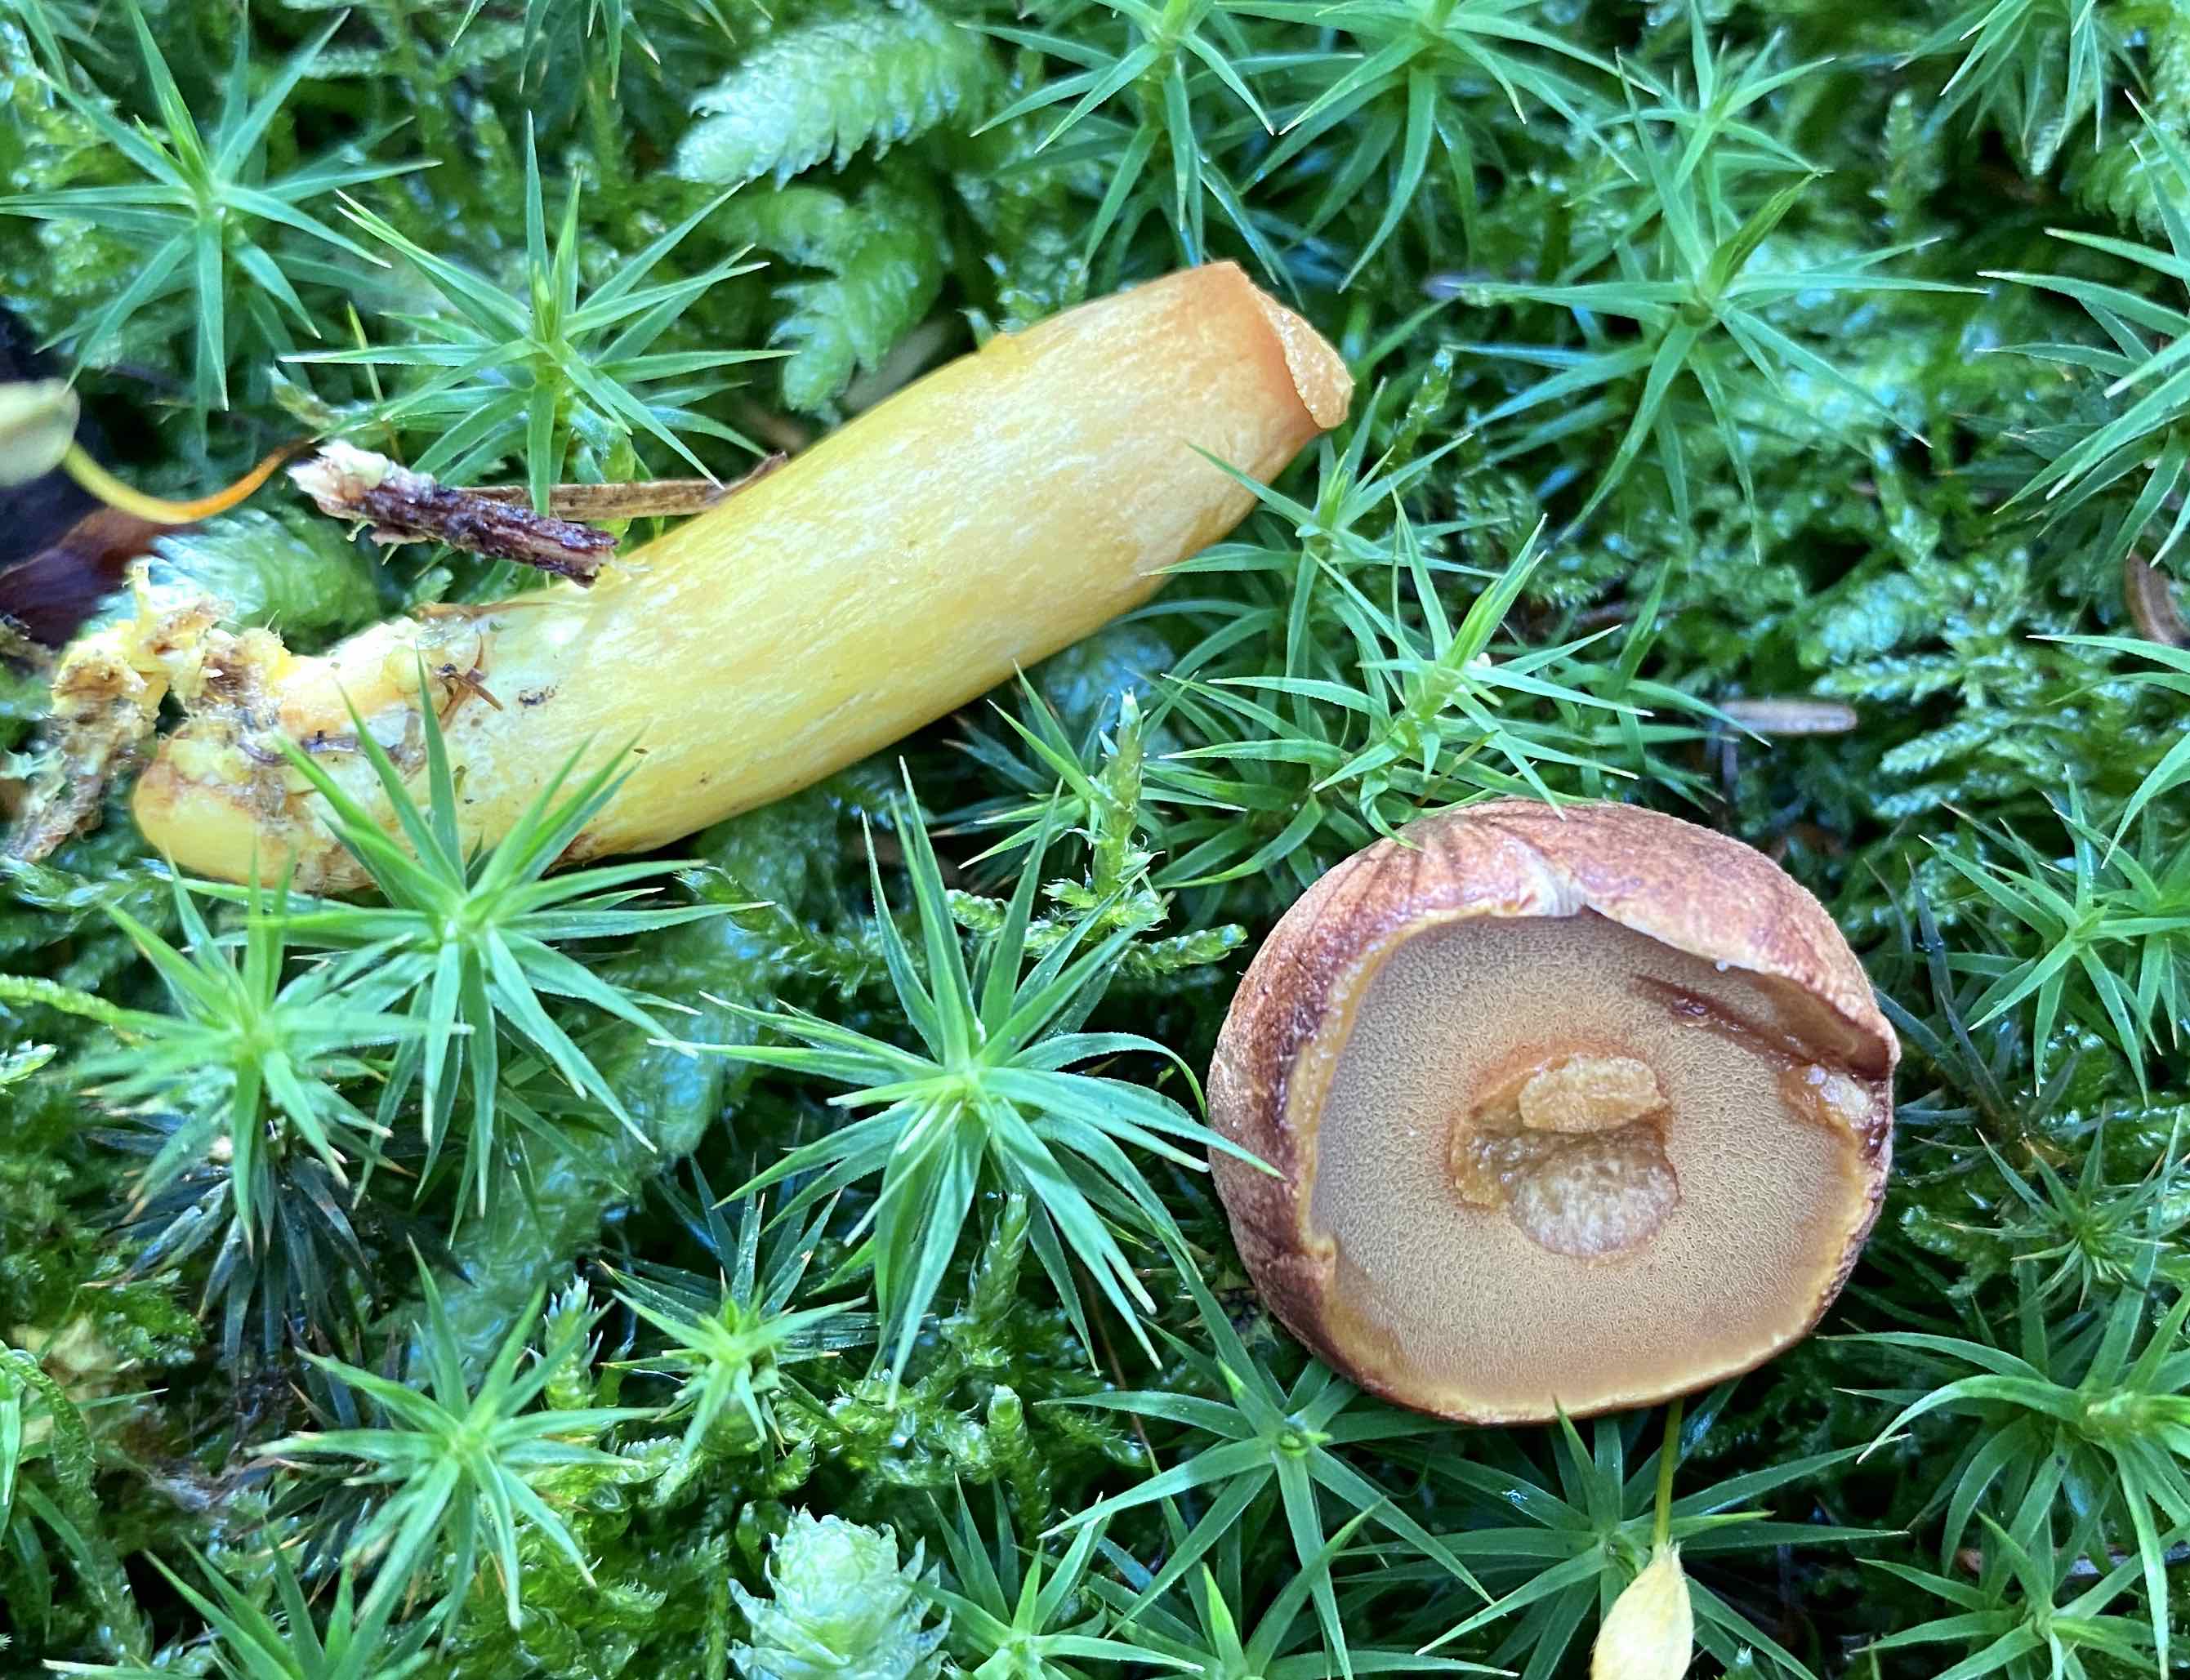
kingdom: Fungi
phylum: Basidiomycota
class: Agaricomycetes
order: Boletales
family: Boletaceae
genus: Chalciporus
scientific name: Chalciporus piperatus
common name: peberrørhat
